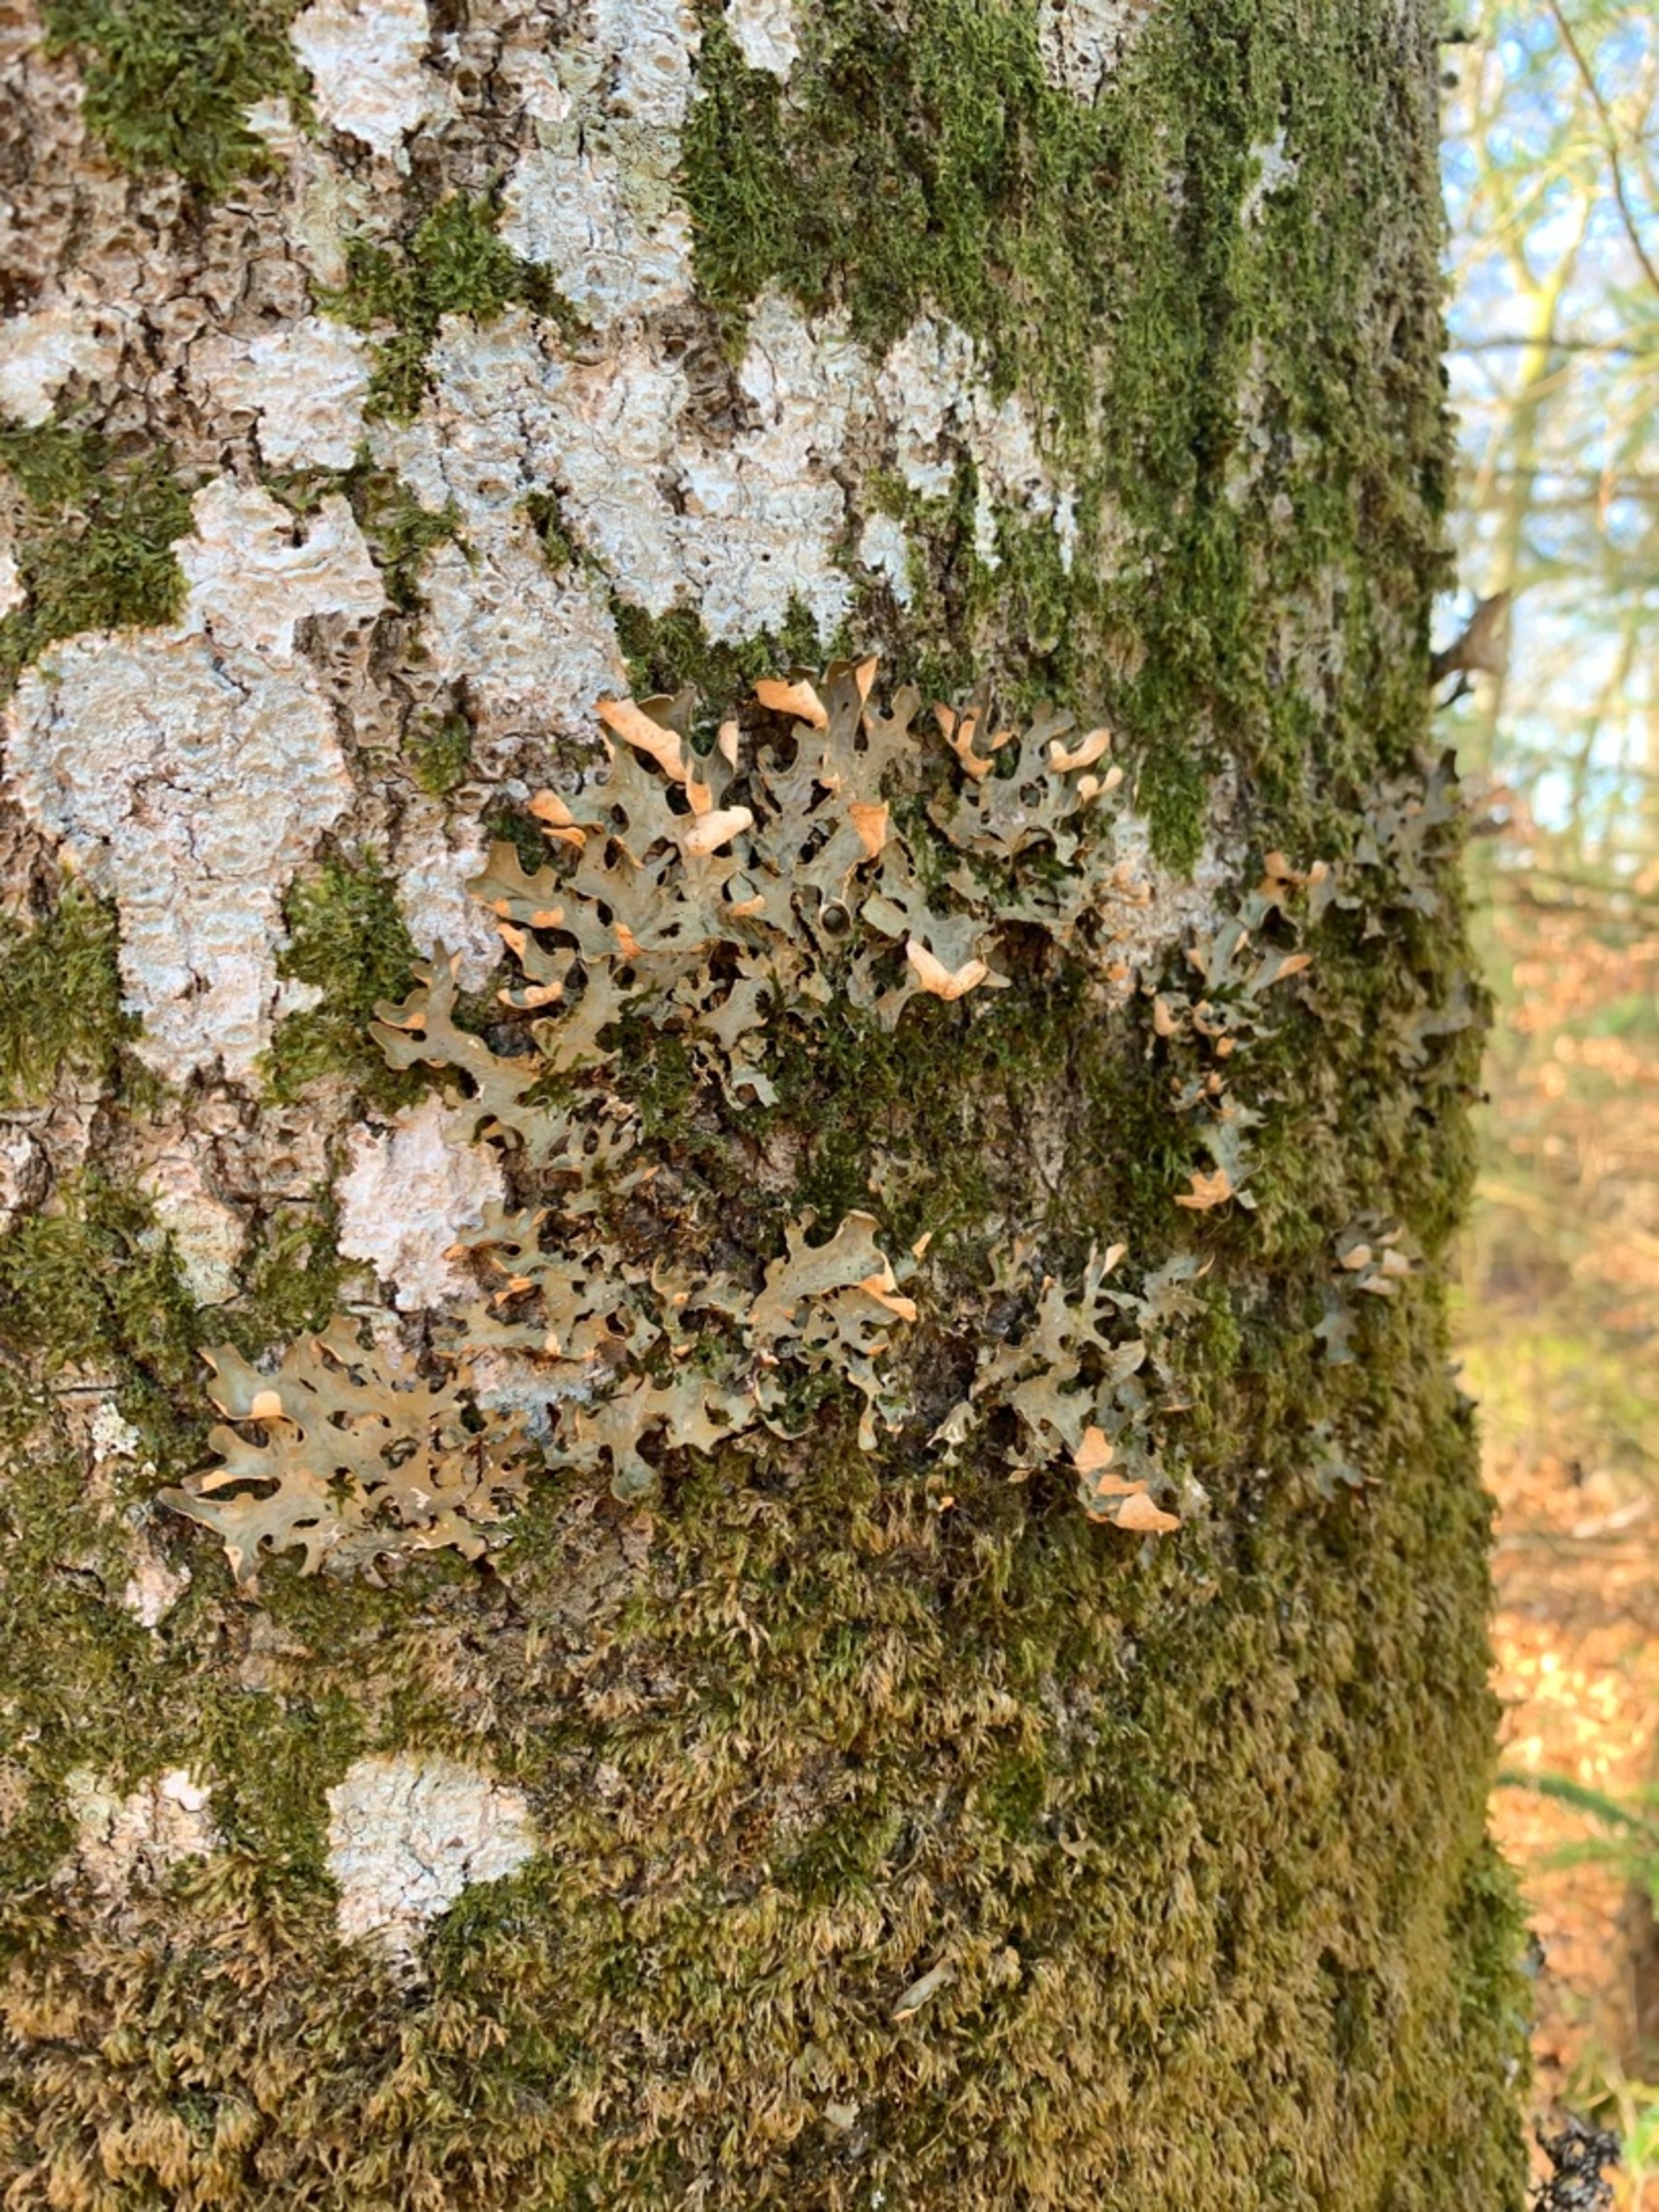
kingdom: Fungi
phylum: Ascomycota
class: Lecanoromycetes
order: Peltigerales
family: Lobariaceae
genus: Lobaria
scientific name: Lobaria pulmonaria
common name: Almindelig lungelav
